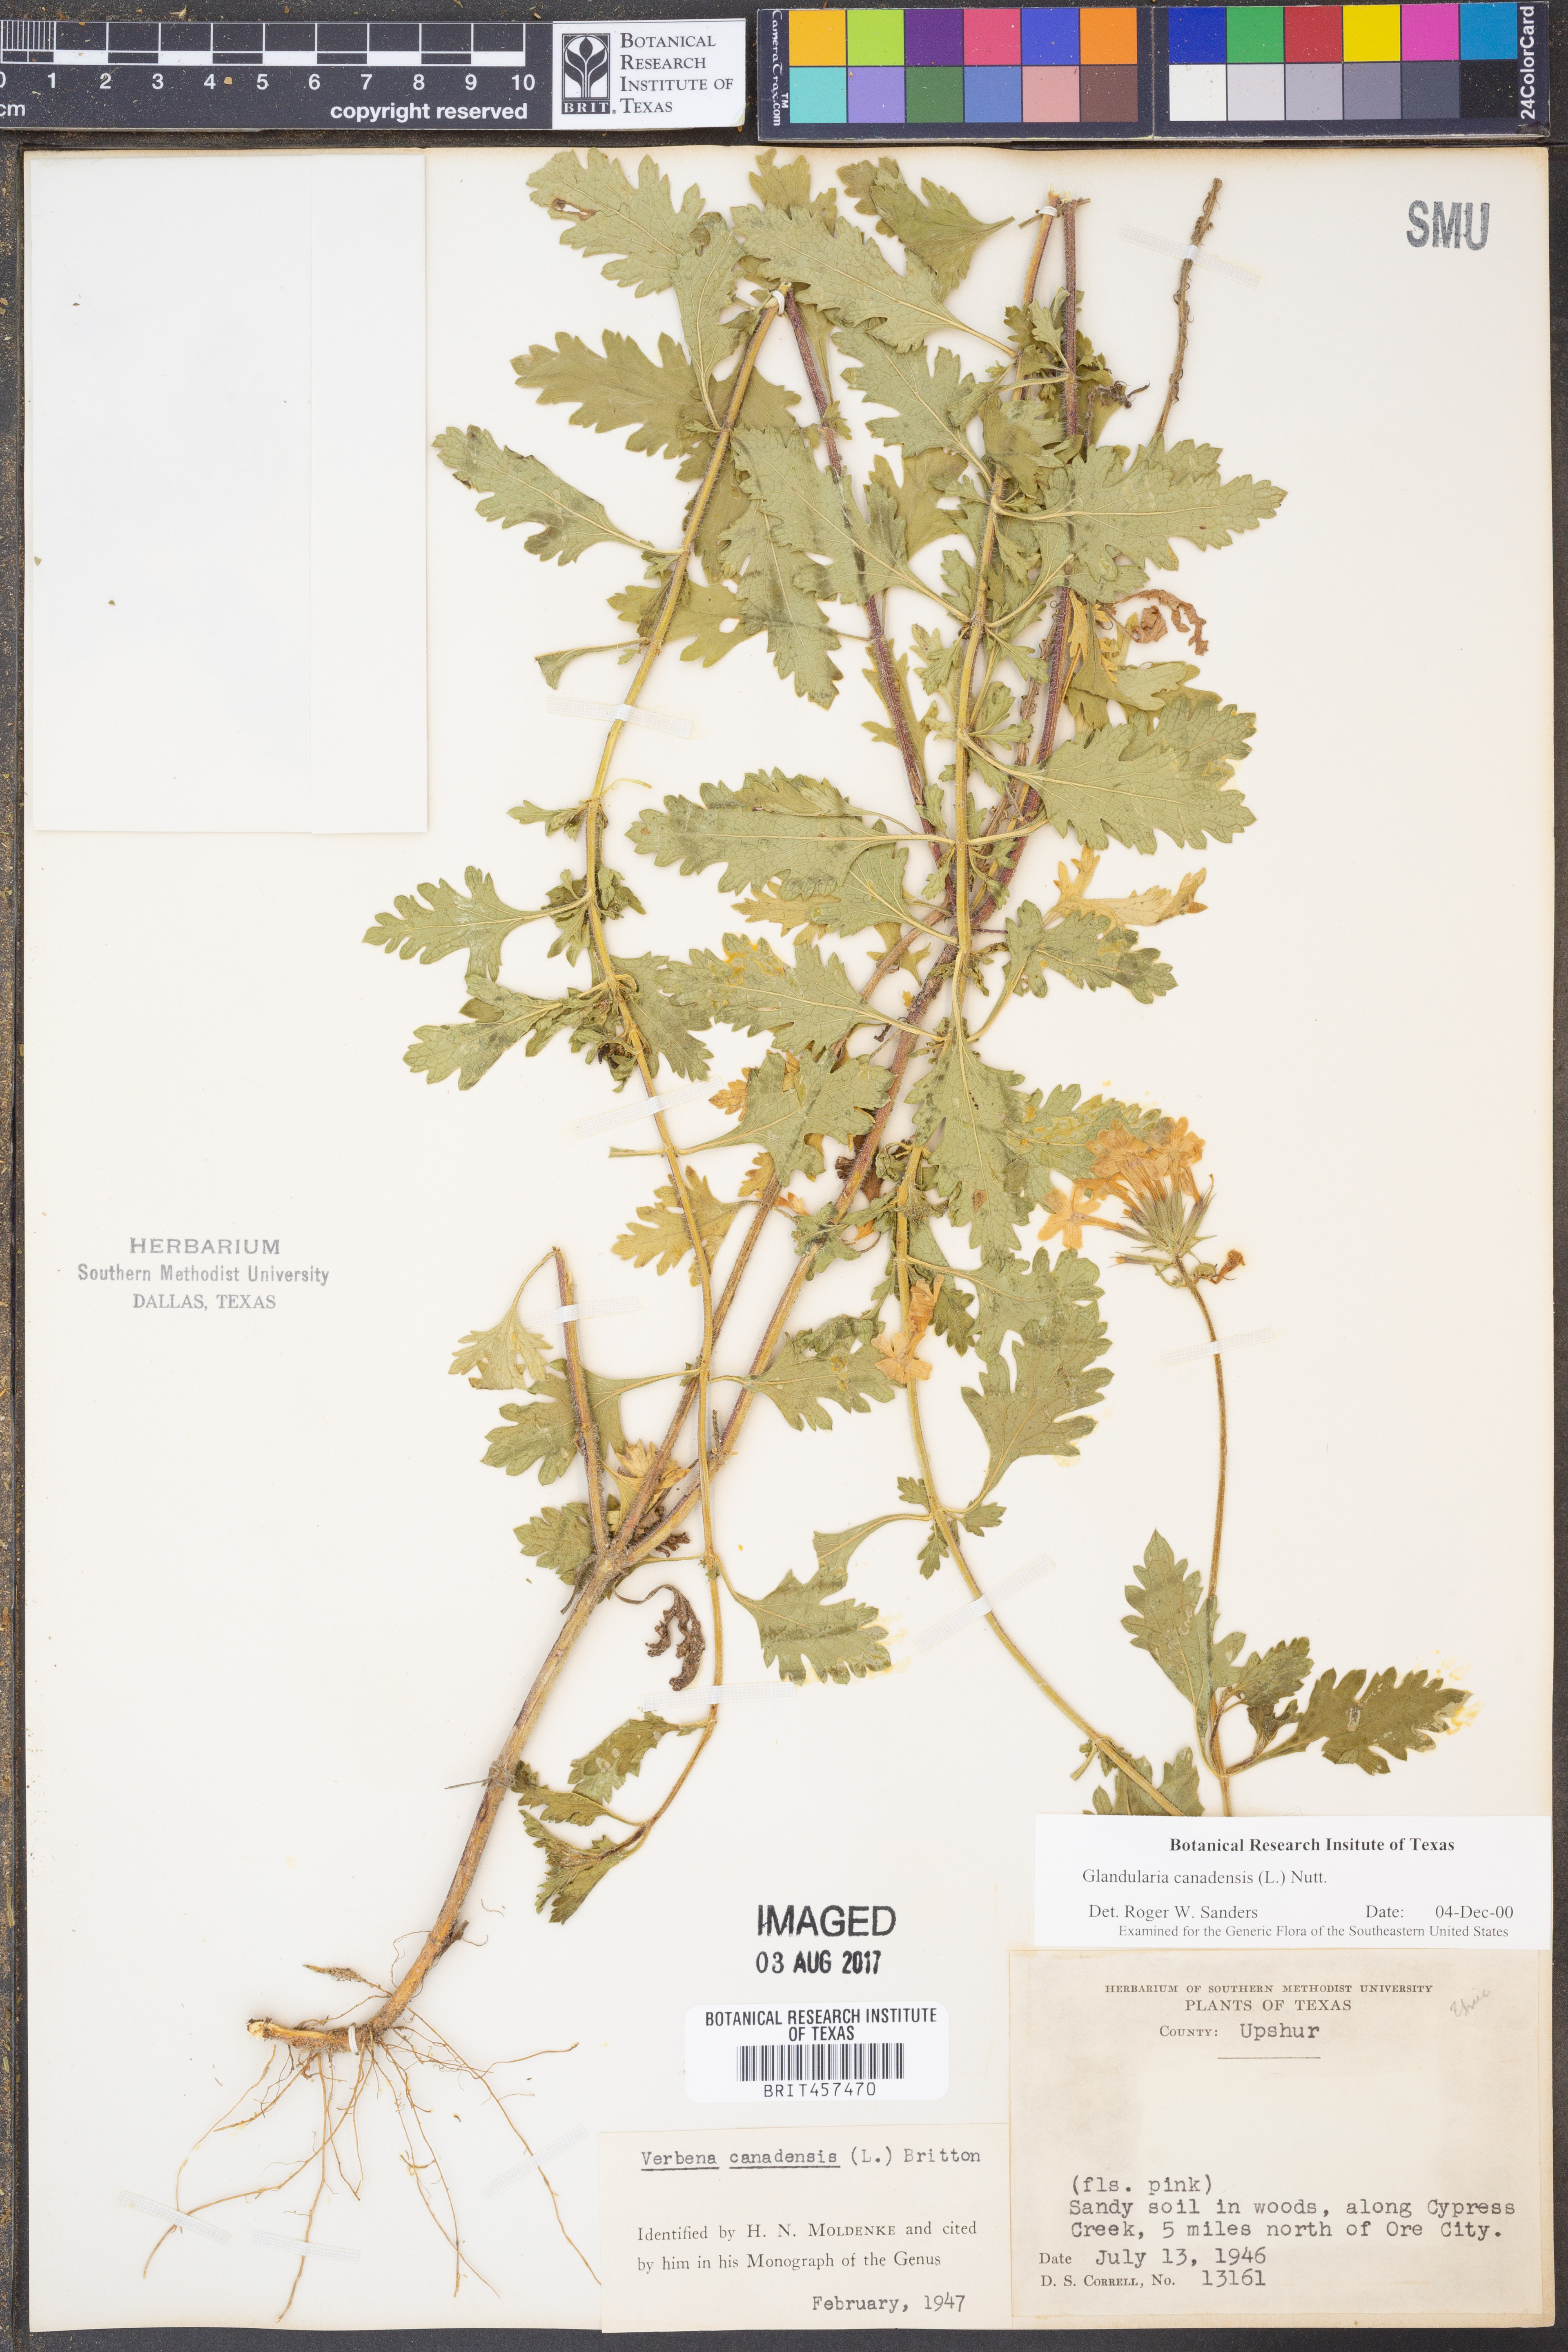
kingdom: Plantae
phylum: Tracheophyta
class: Magnoliopsida
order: Lamiales
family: Verbenaceae
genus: Verbena
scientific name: Verbena canadensis
